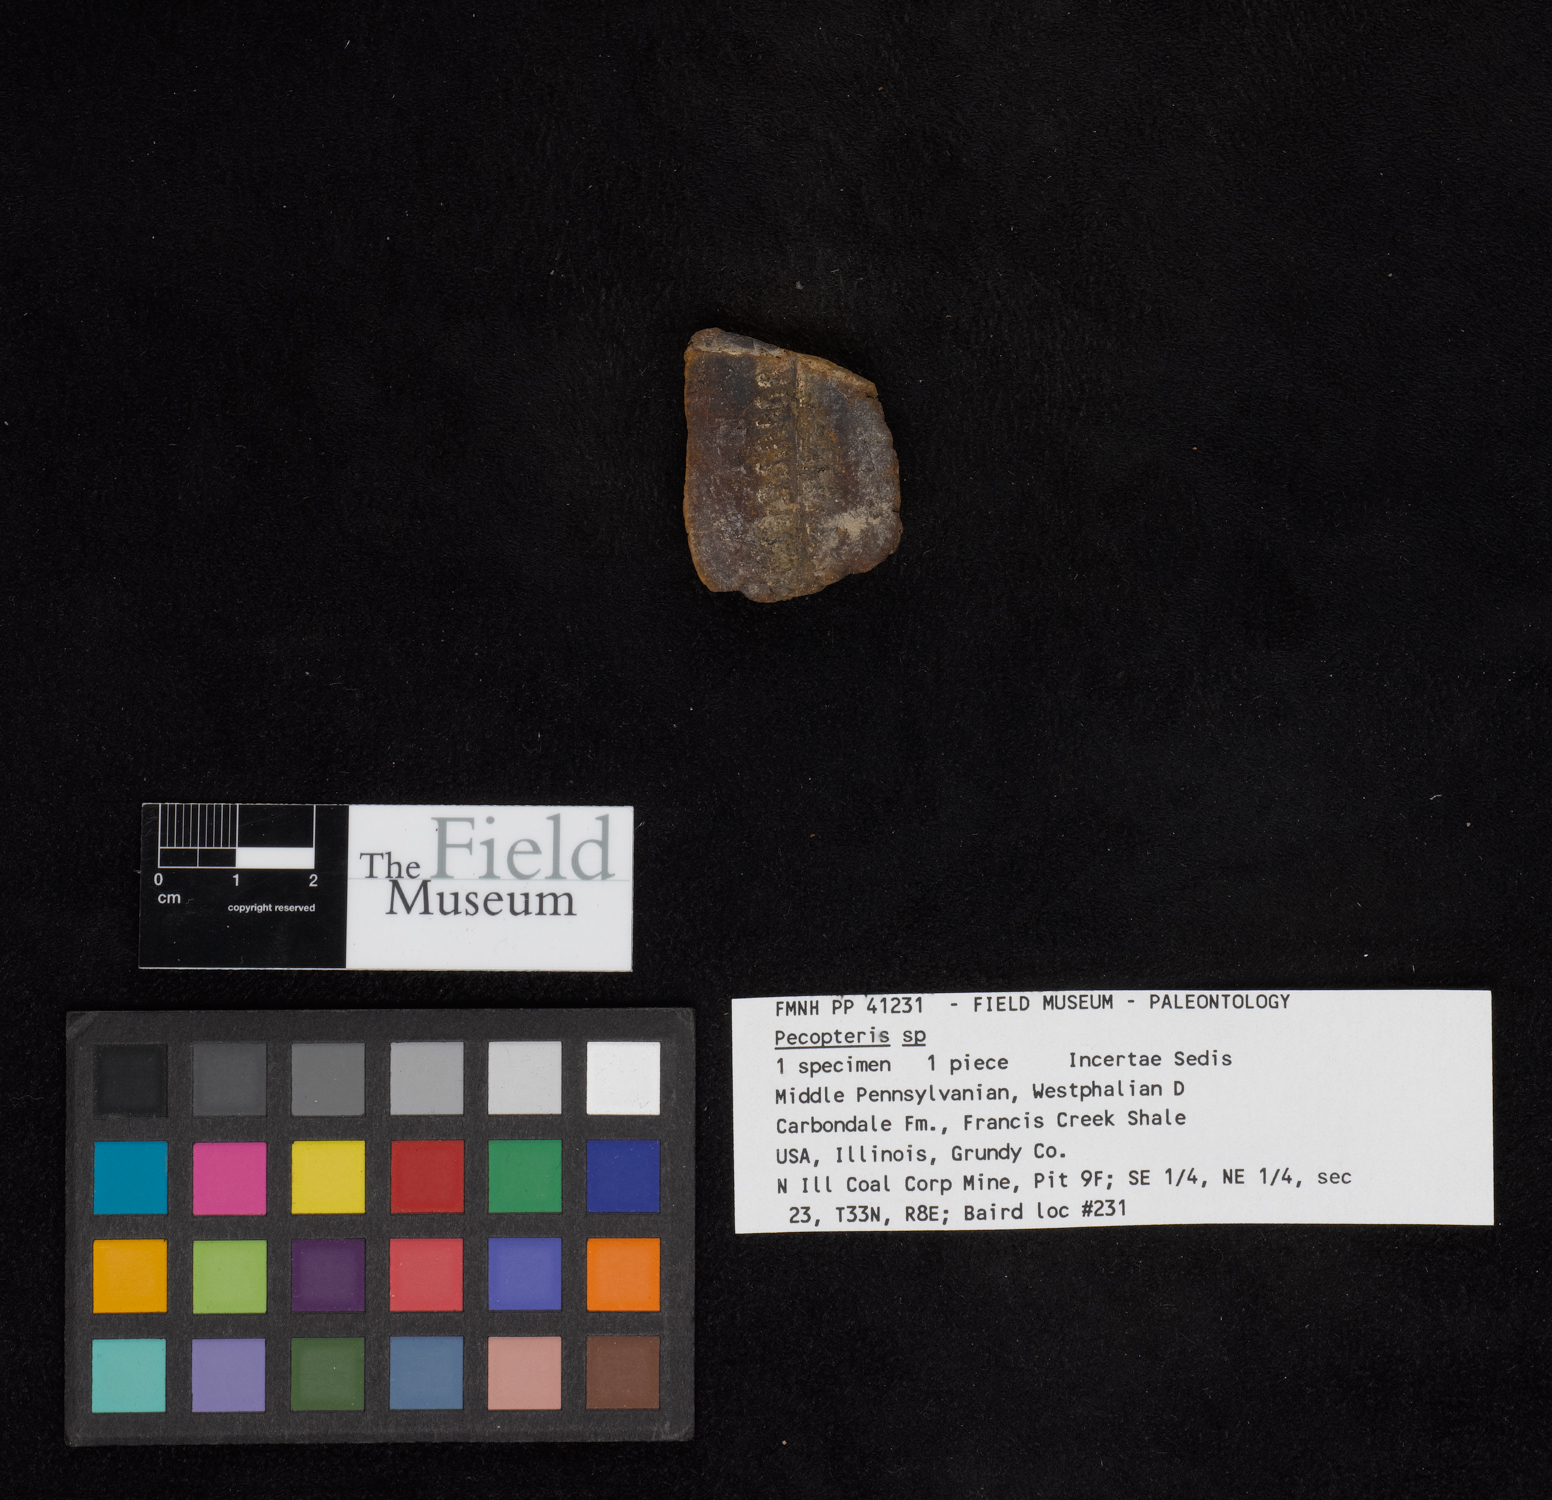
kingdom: Plantae
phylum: Tracheophyta
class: Polypodiopsida
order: Marattiales
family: Asterothecaceae
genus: Pecopteris
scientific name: Pecopteris
